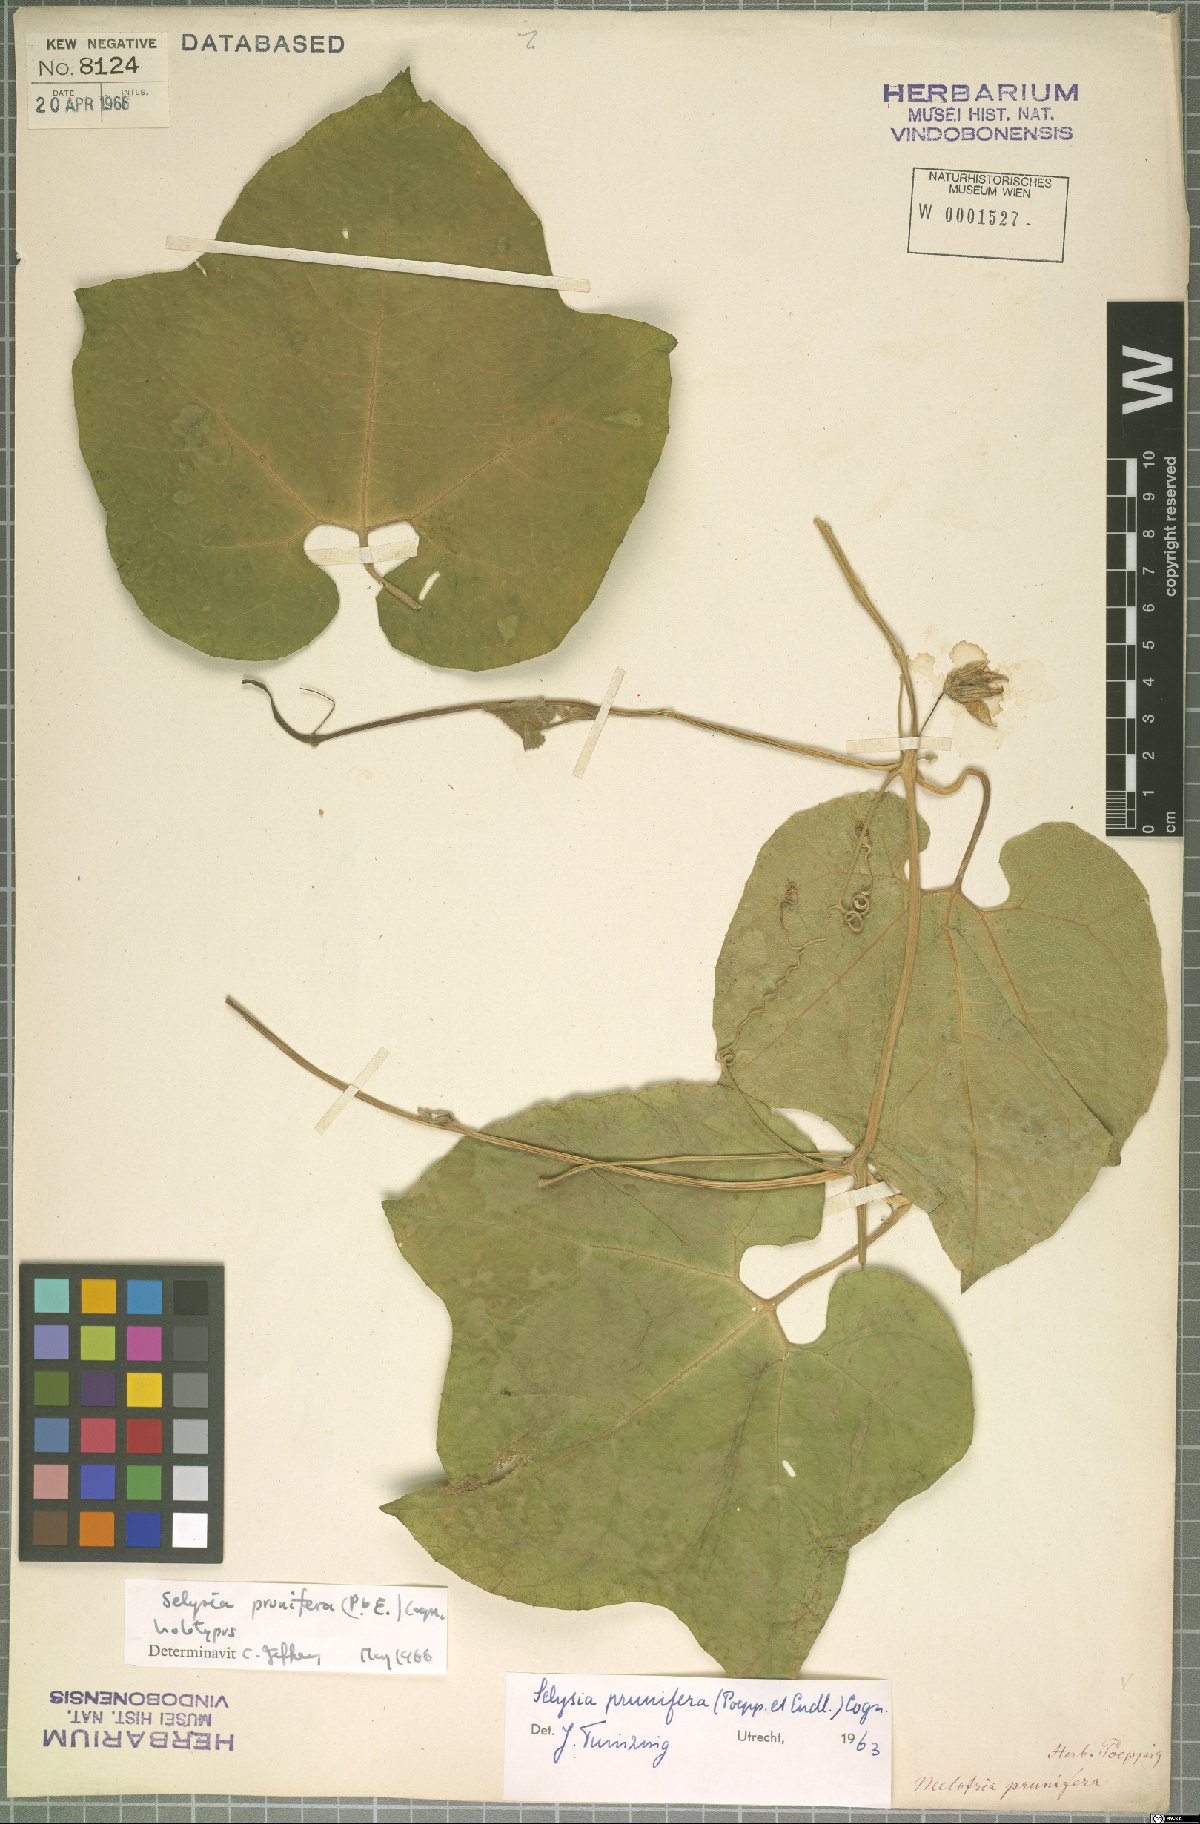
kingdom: Plantae
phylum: Tracheophyta
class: Magnoliopsida
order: Cucurbitales
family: Cucurbitaceae
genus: Cayaponia
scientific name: Cayaponia prunifera
